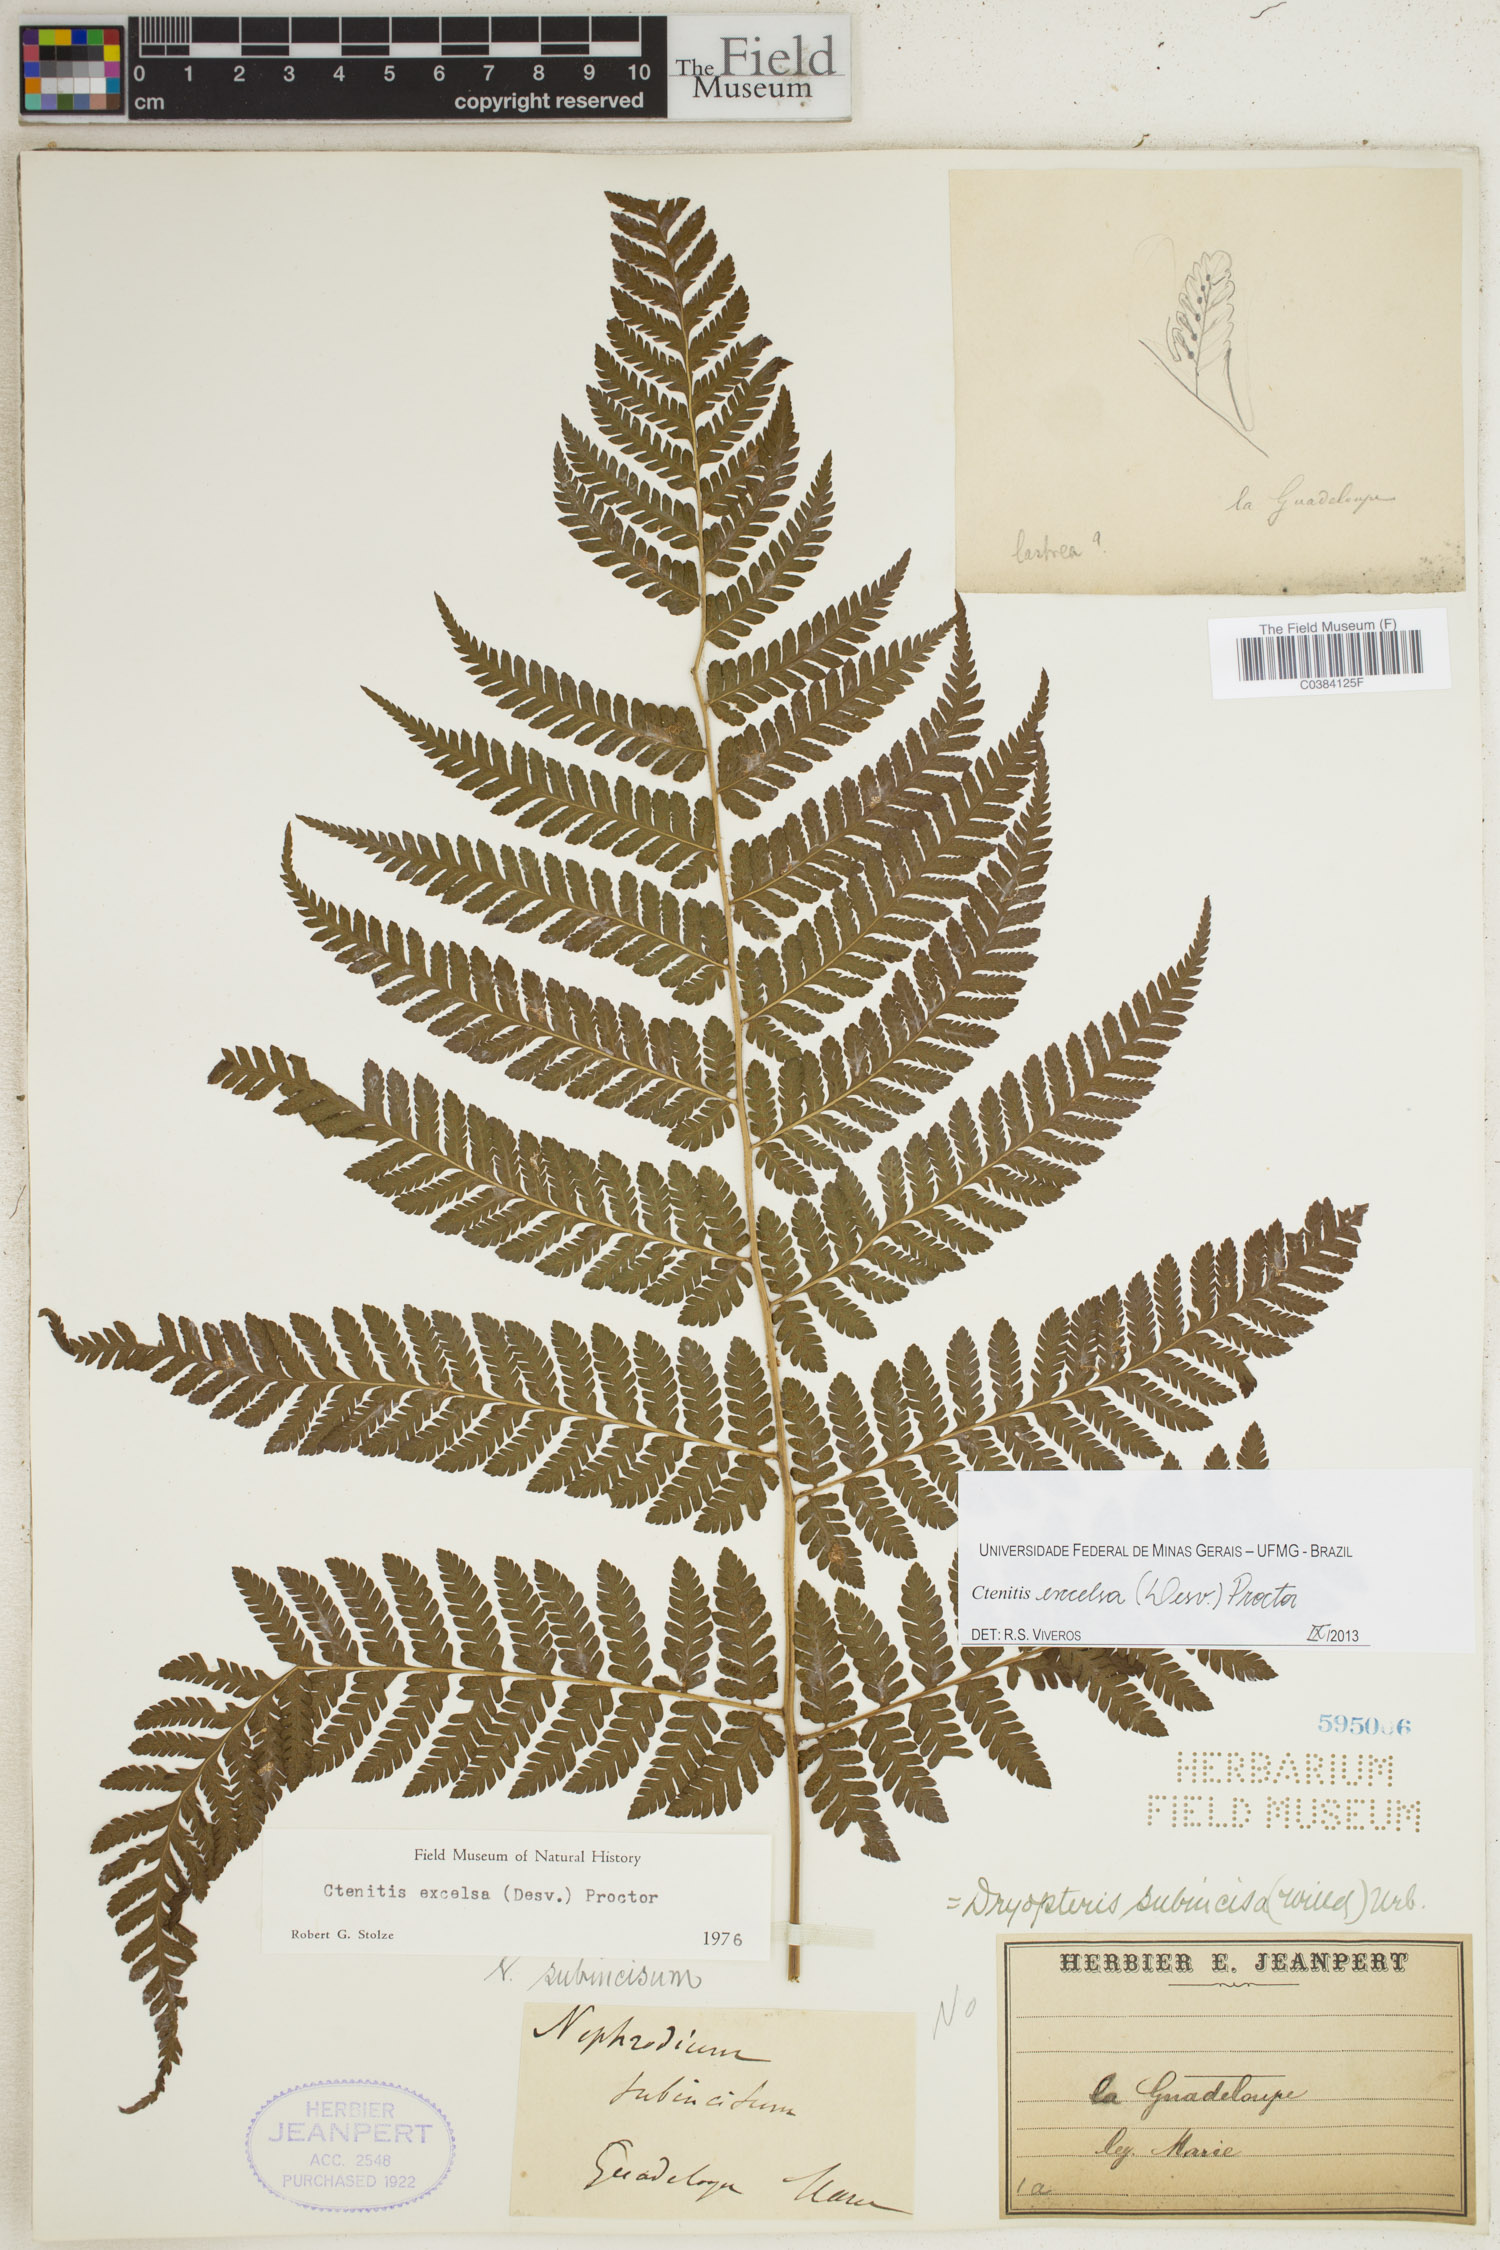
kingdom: Plantae
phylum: Tracheophyta
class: Polypodiopsida
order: Polypodiales
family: Dryopteridaceae
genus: Ctenitis
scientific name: Ctenitis excelsa
